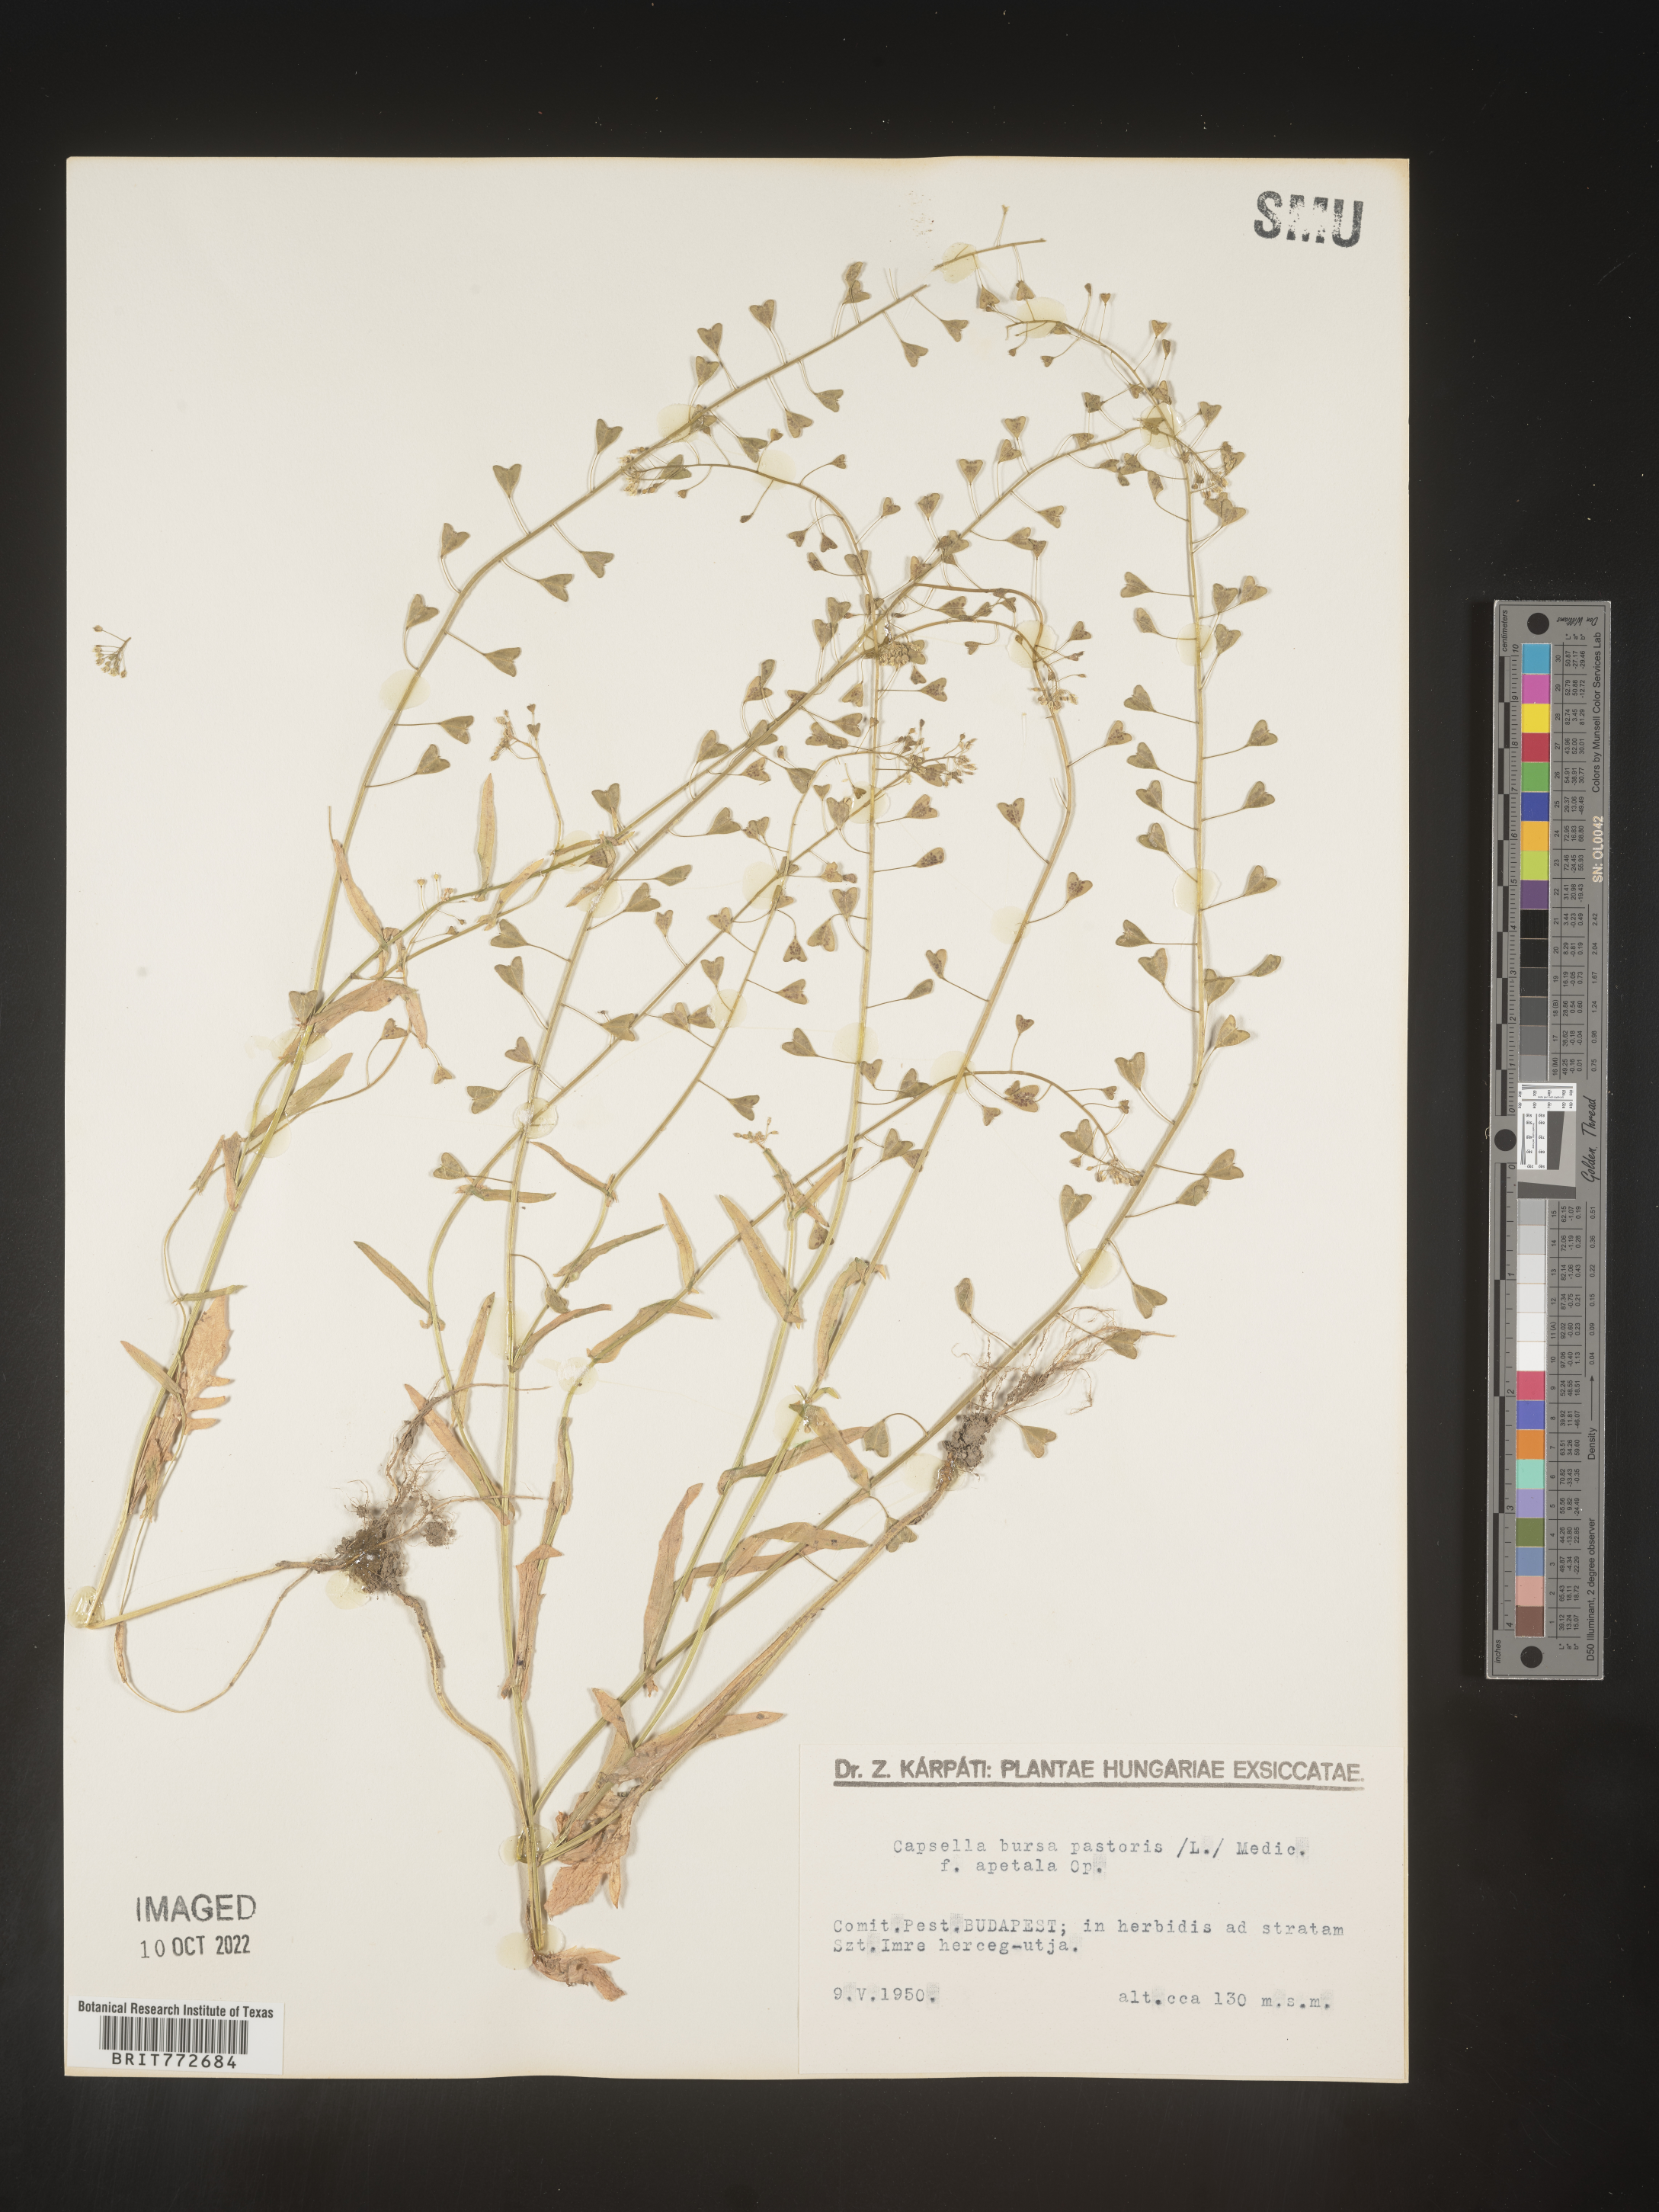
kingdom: Plantae
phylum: Tracheophyta
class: Magnoliopsida
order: Brassicales
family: Brassicaceae
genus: Capsella
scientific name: Capsella
